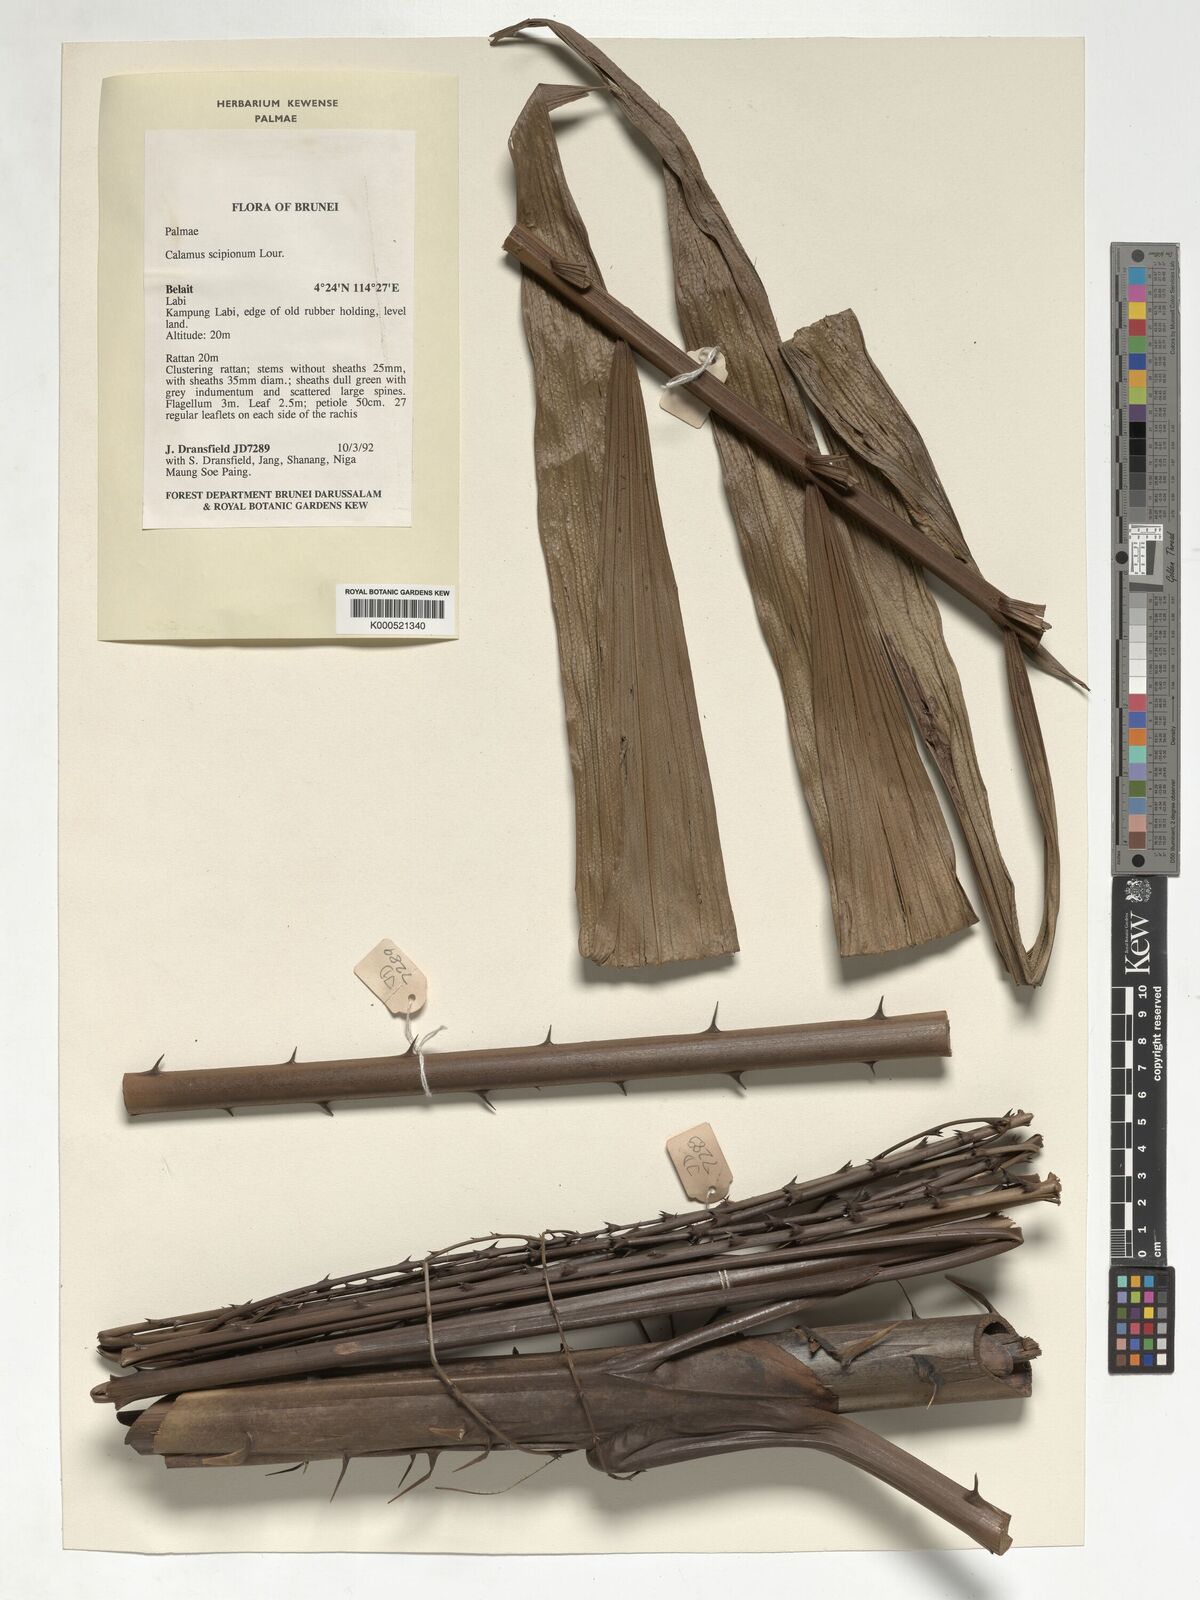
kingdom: Plantae
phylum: Tracheophyta
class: Liliopsida
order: Arecales
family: Arecaceae
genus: Calamus
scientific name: Calamus scipionum
